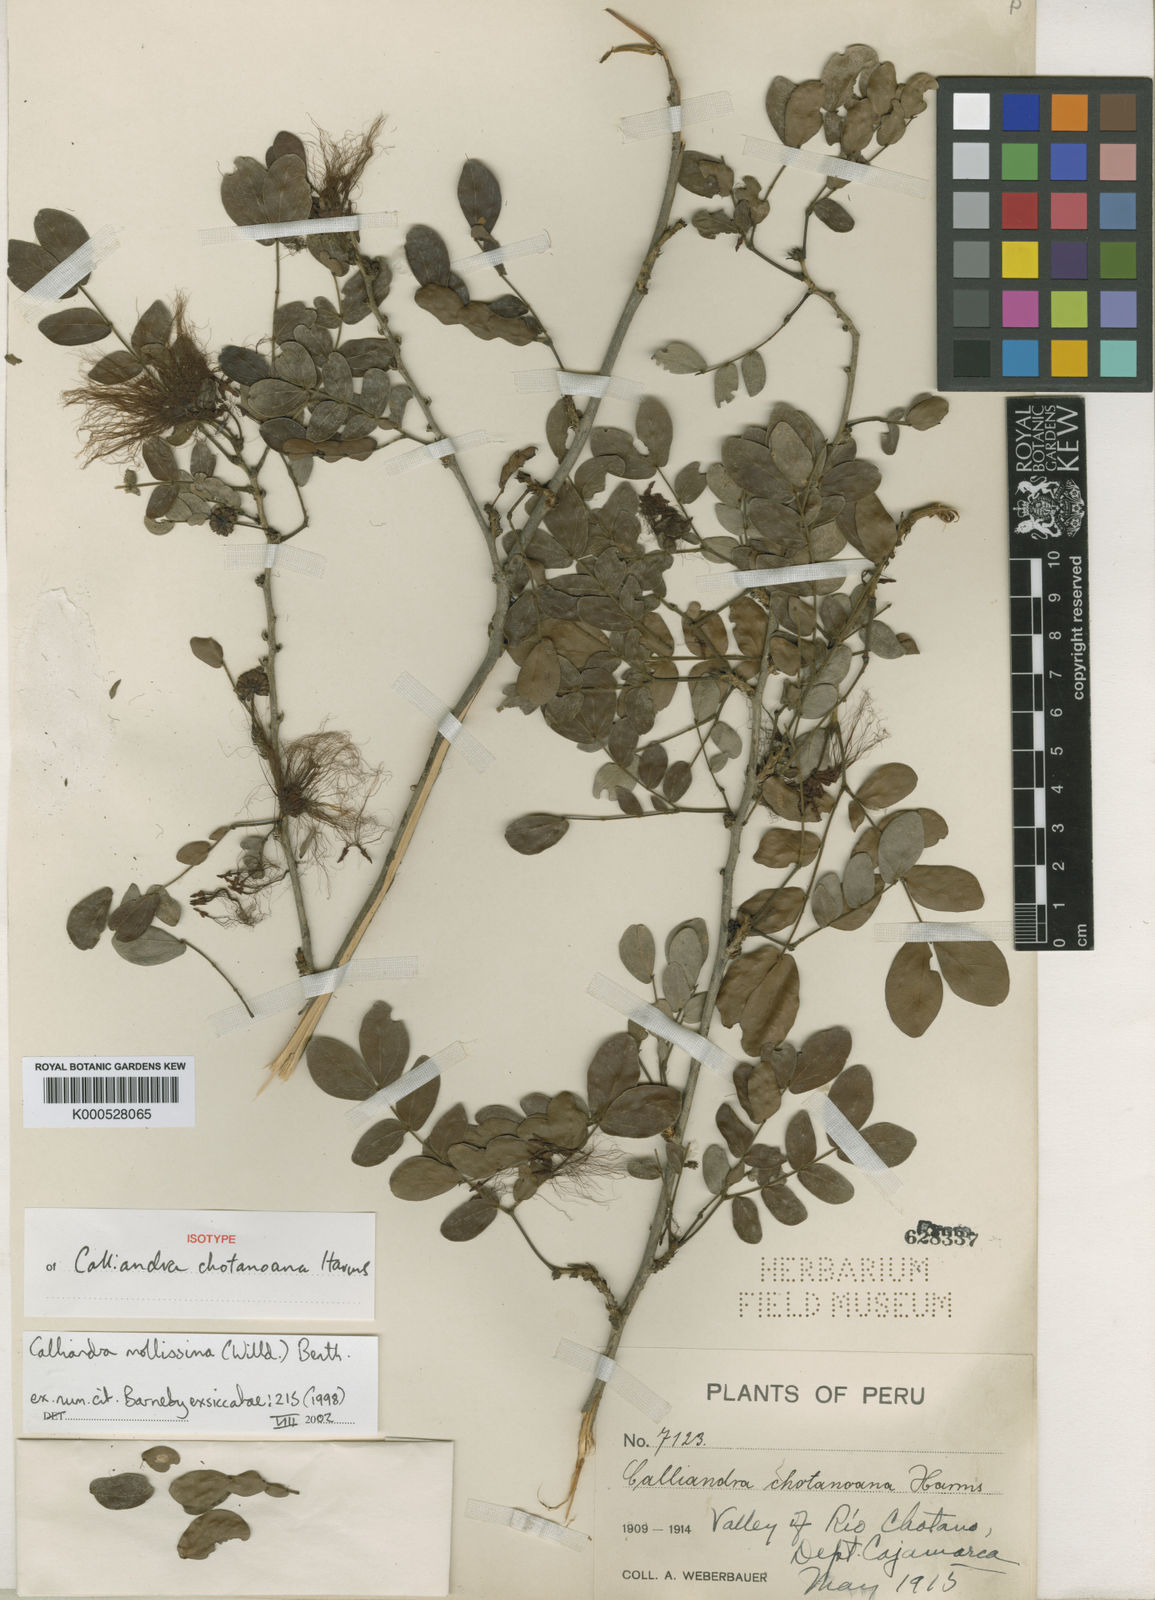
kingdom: Plantae
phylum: Tracheophyta
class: Magnoliopsida
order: Fabales
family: Fabaceae
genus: Calliandra
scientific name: Calliandra mollissima
